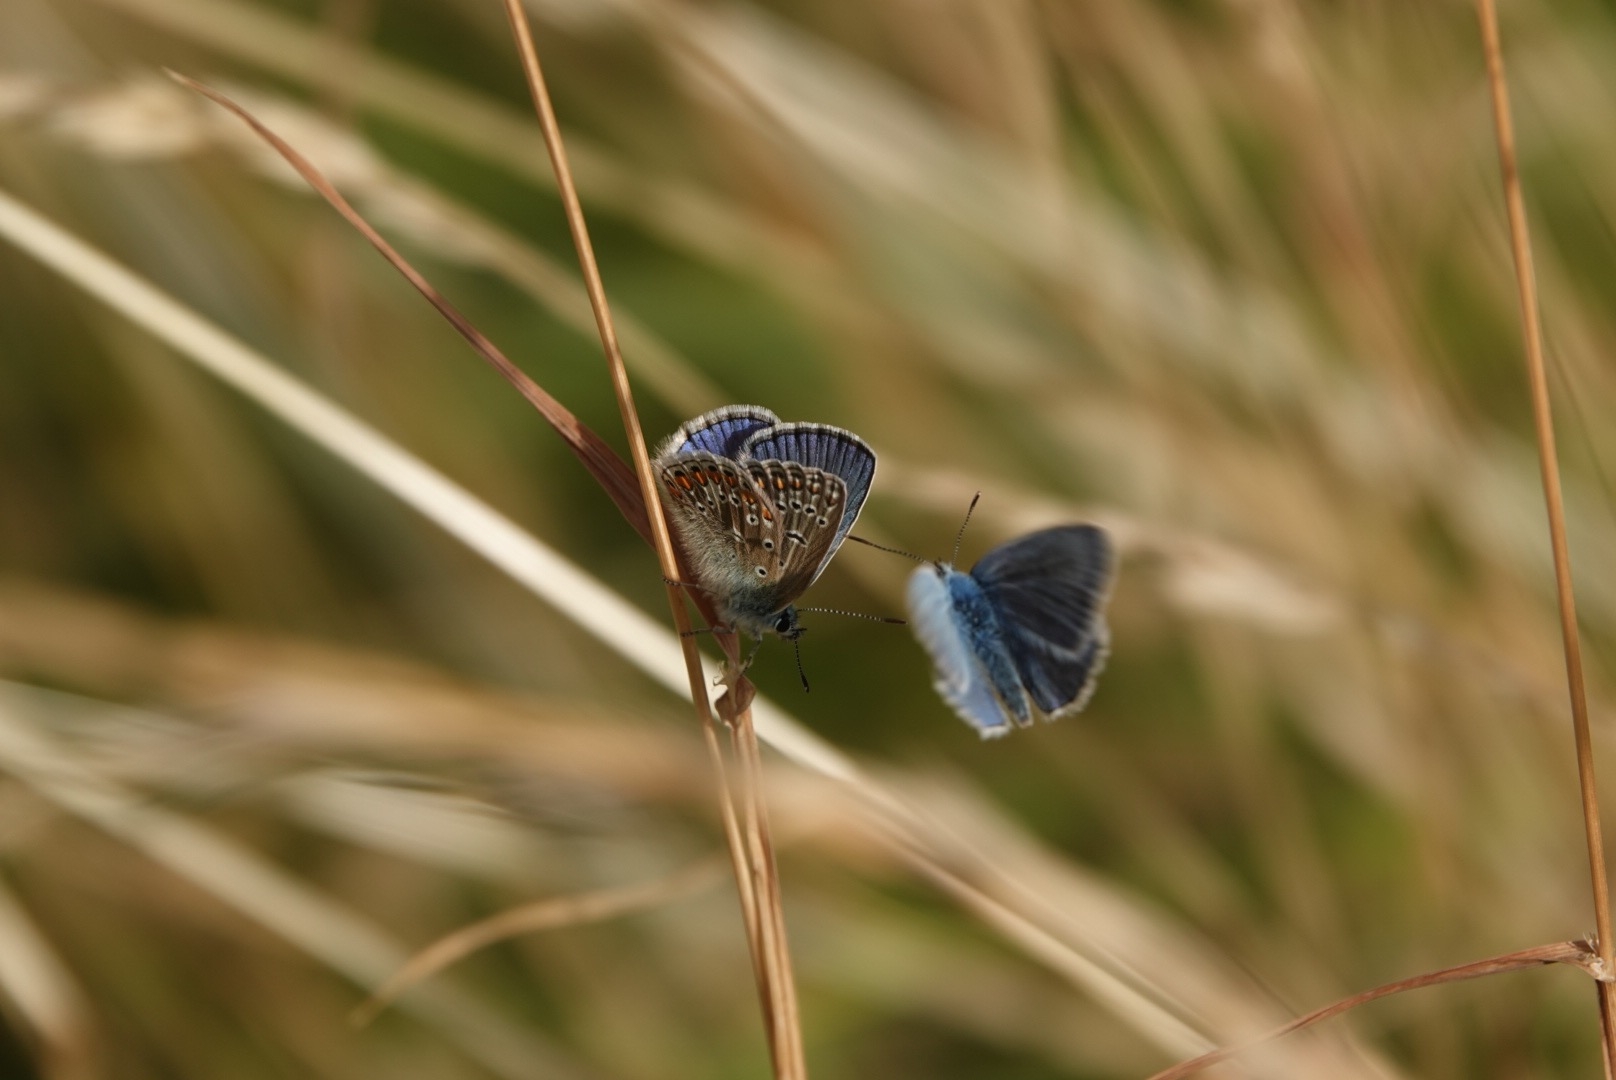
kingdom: Animalia
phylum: Arthropoda
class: Insecta
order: Lepidoptera
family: Lycaenidae
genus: Polyommatus
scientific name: Polyommatus icarus
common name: Almindelig blåfugl
